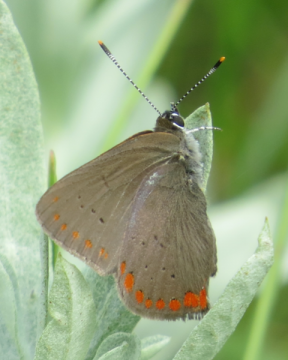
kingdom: Animalia
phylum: Arthropoda
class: Insecta
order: Lepidoptera
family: Lycaenidae
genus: Harkenclenus
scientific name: Harkenclenus titus
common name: Coral Hairstreak
